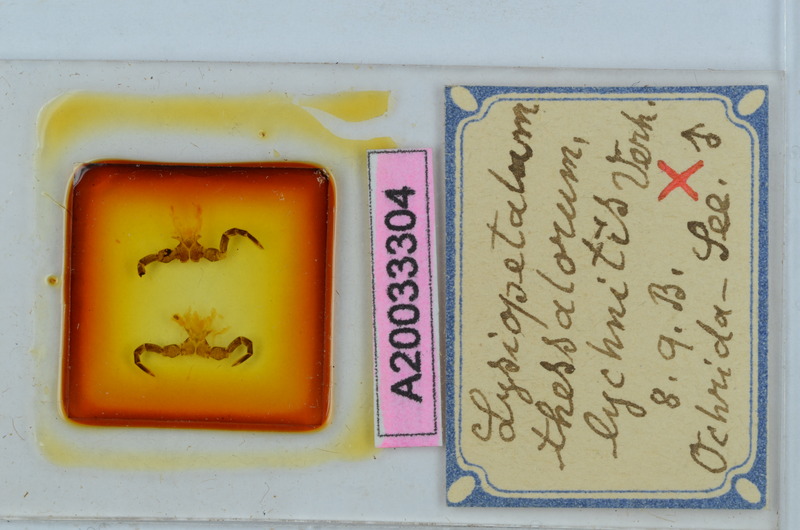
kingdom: Animalia
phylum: Arthropoda
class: Diplopoda
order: Callipodida
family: Schizopetalidae
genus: Acanthopetalum
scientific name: Acanthopetalum thessalorum
